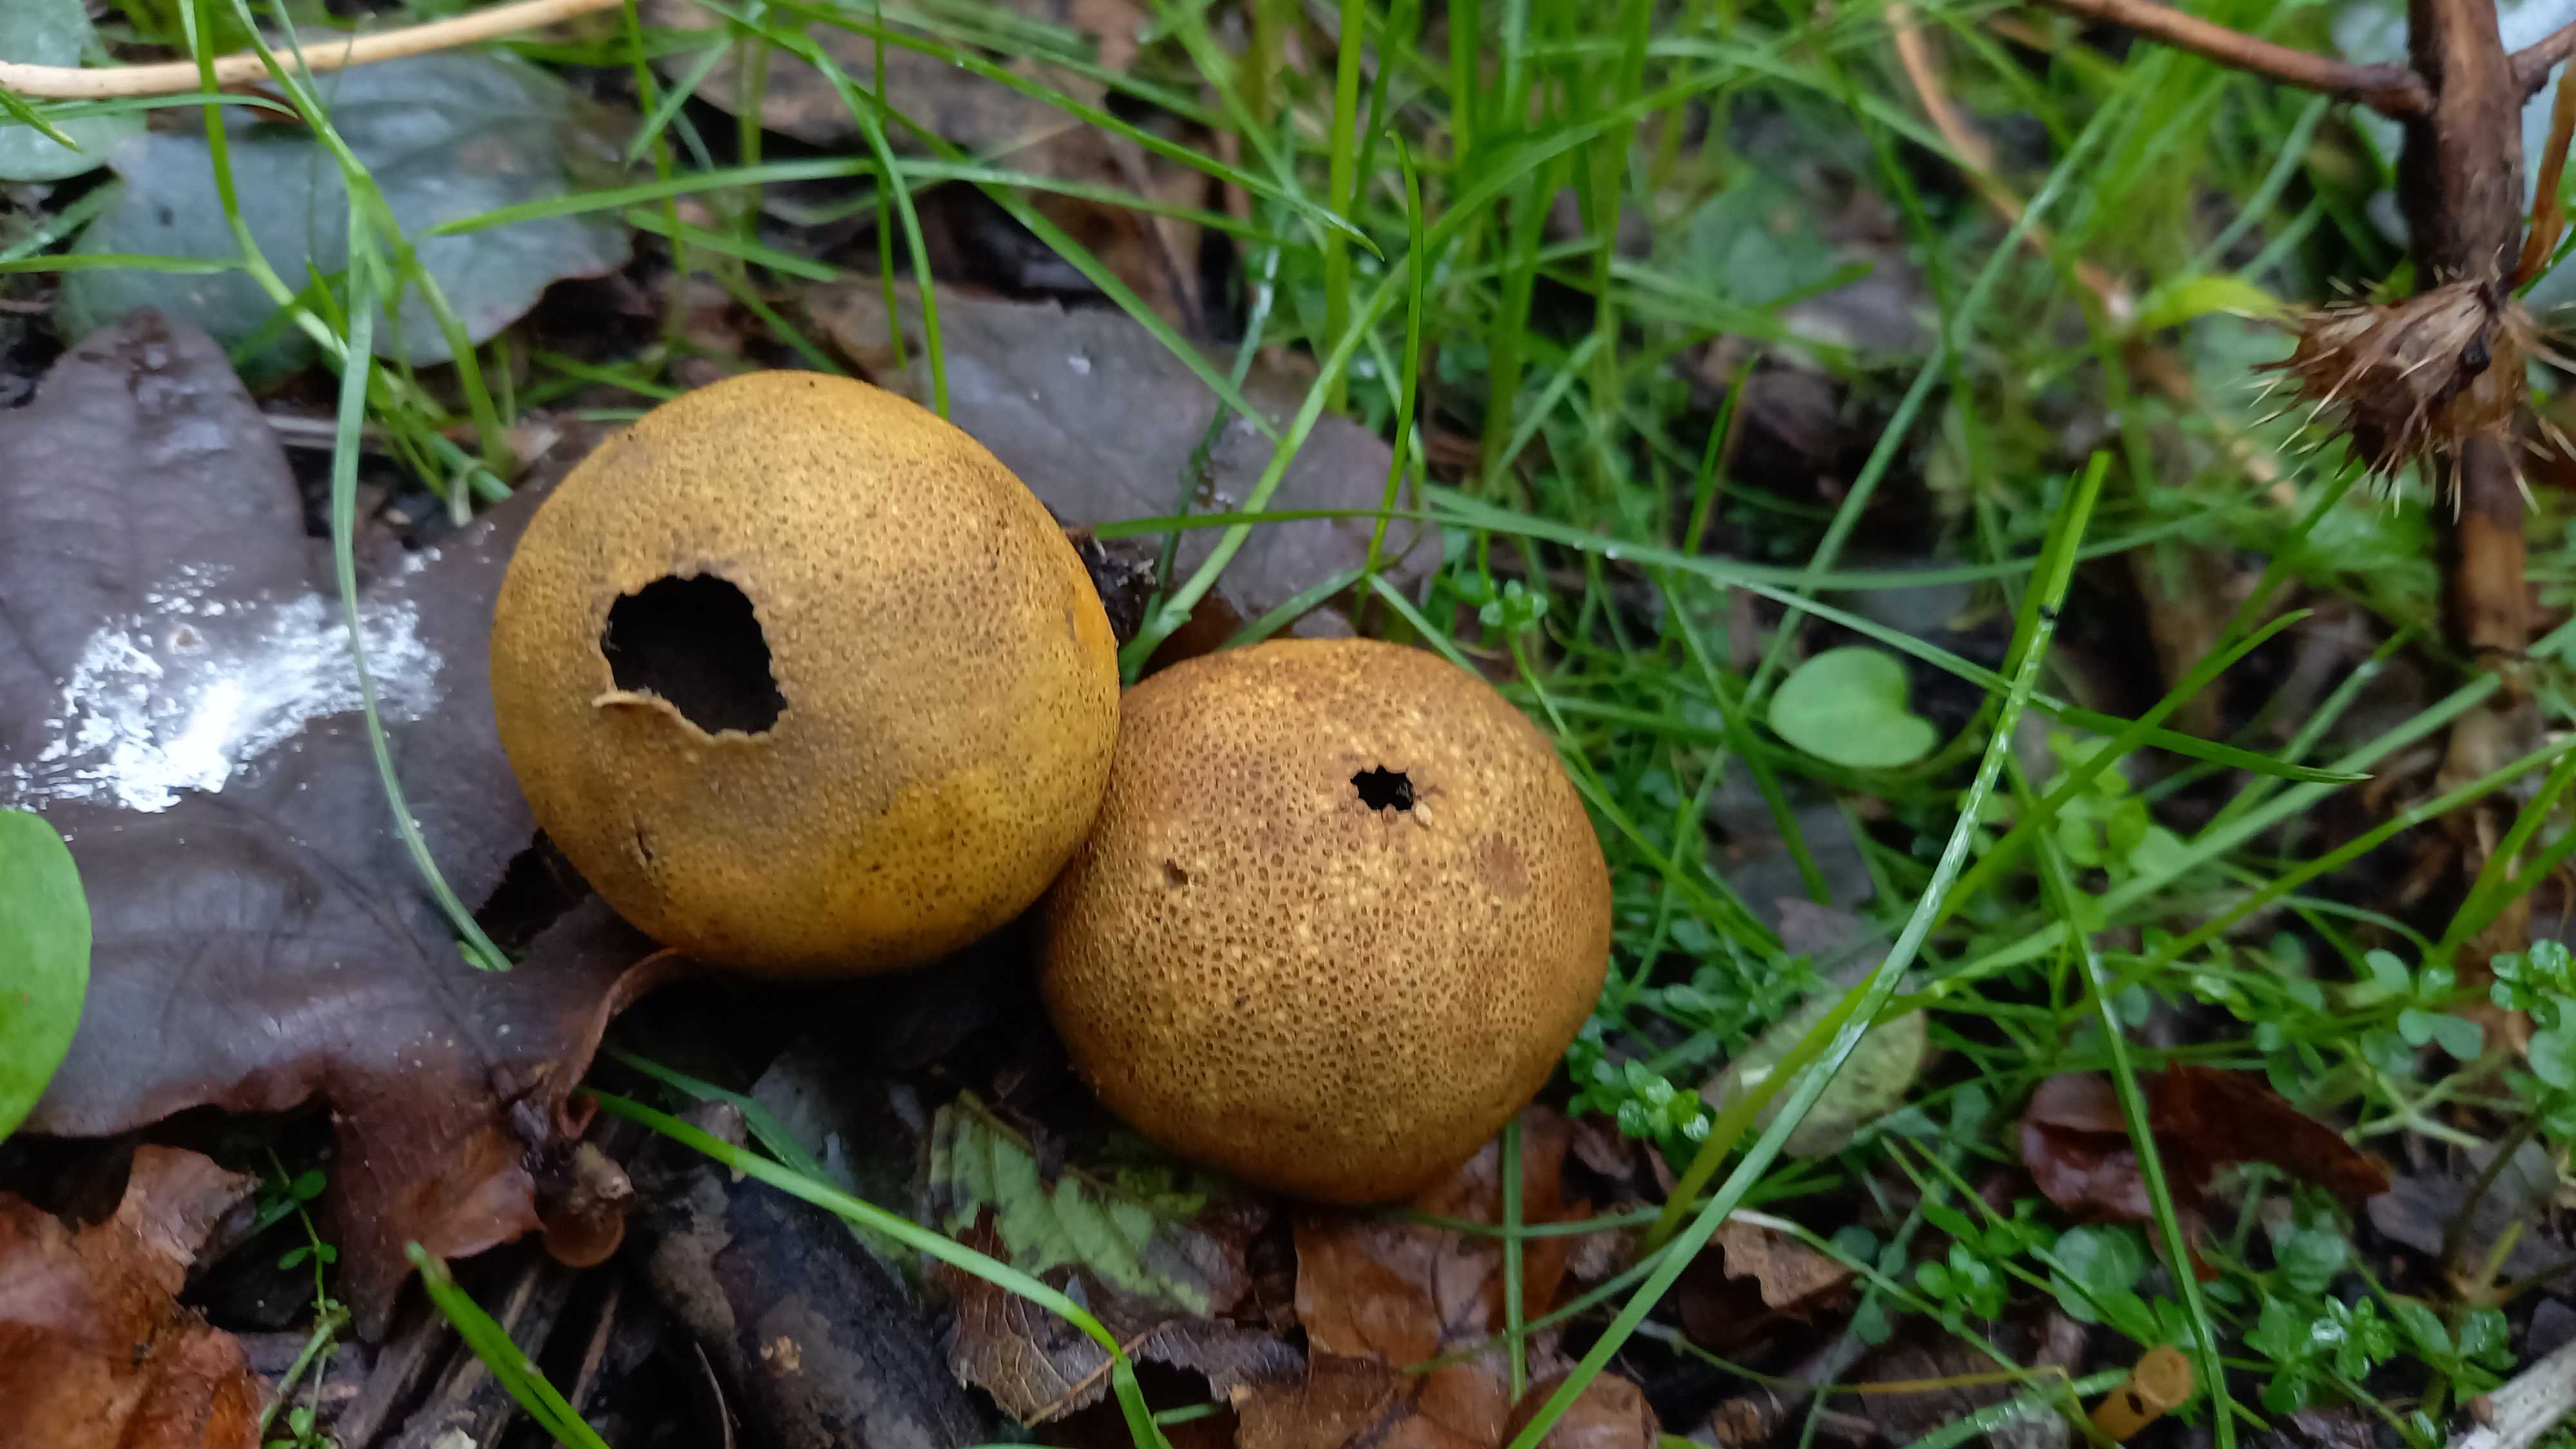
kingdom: Fungi
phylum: Basidiomycota
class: Agaricomycetes
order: Boletales
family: Sclerodermataceae
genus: Scleroderma
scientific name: Scleroderma areolatum
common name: plettet bruskbold
